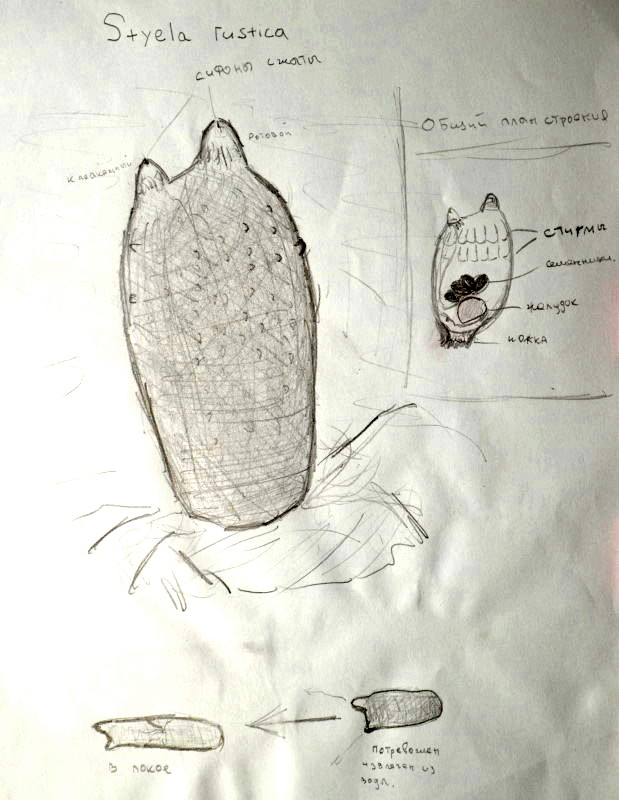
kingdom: Animalia
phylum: Chordata
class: Ascidiacea
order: Stolidobranchia
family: Styelidae
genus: Styela
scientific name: Styela rustica
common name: асцидия
